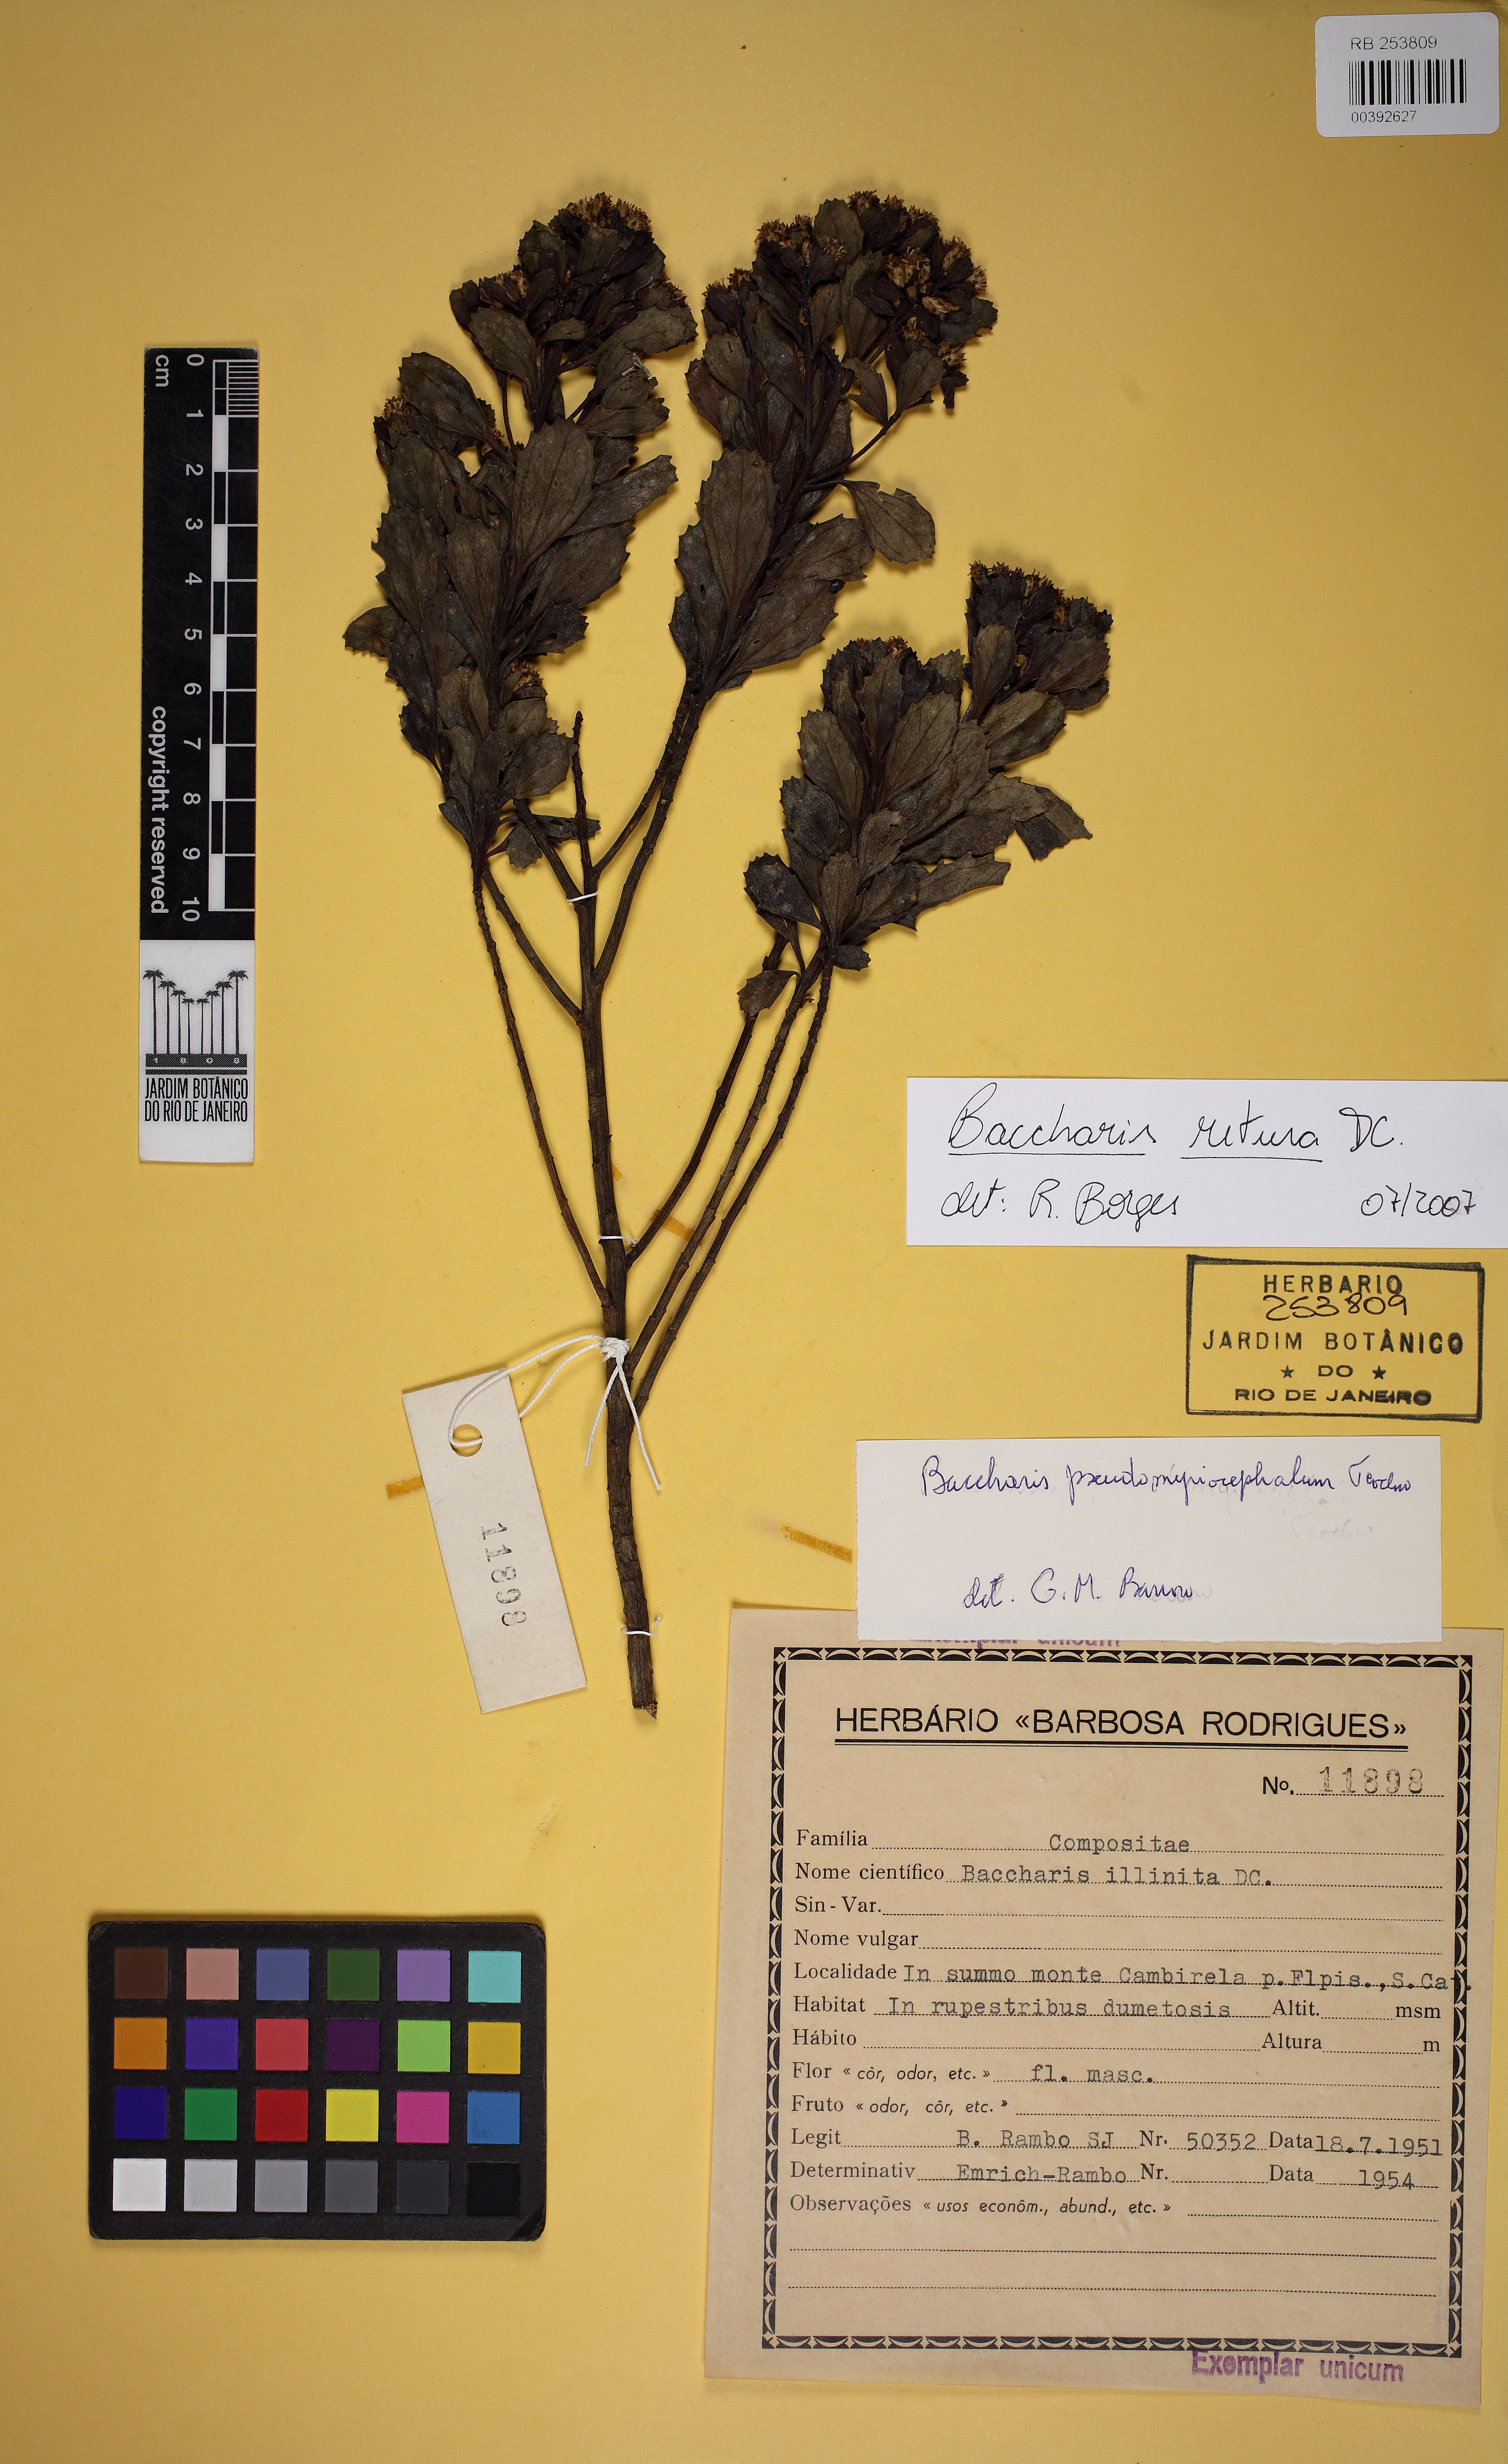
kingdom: Plantae
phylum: Tracheophyta
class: Magnoliopsida
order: Asterales
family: Asteraceae
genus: Baccharis
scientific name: Baccharis retusa
